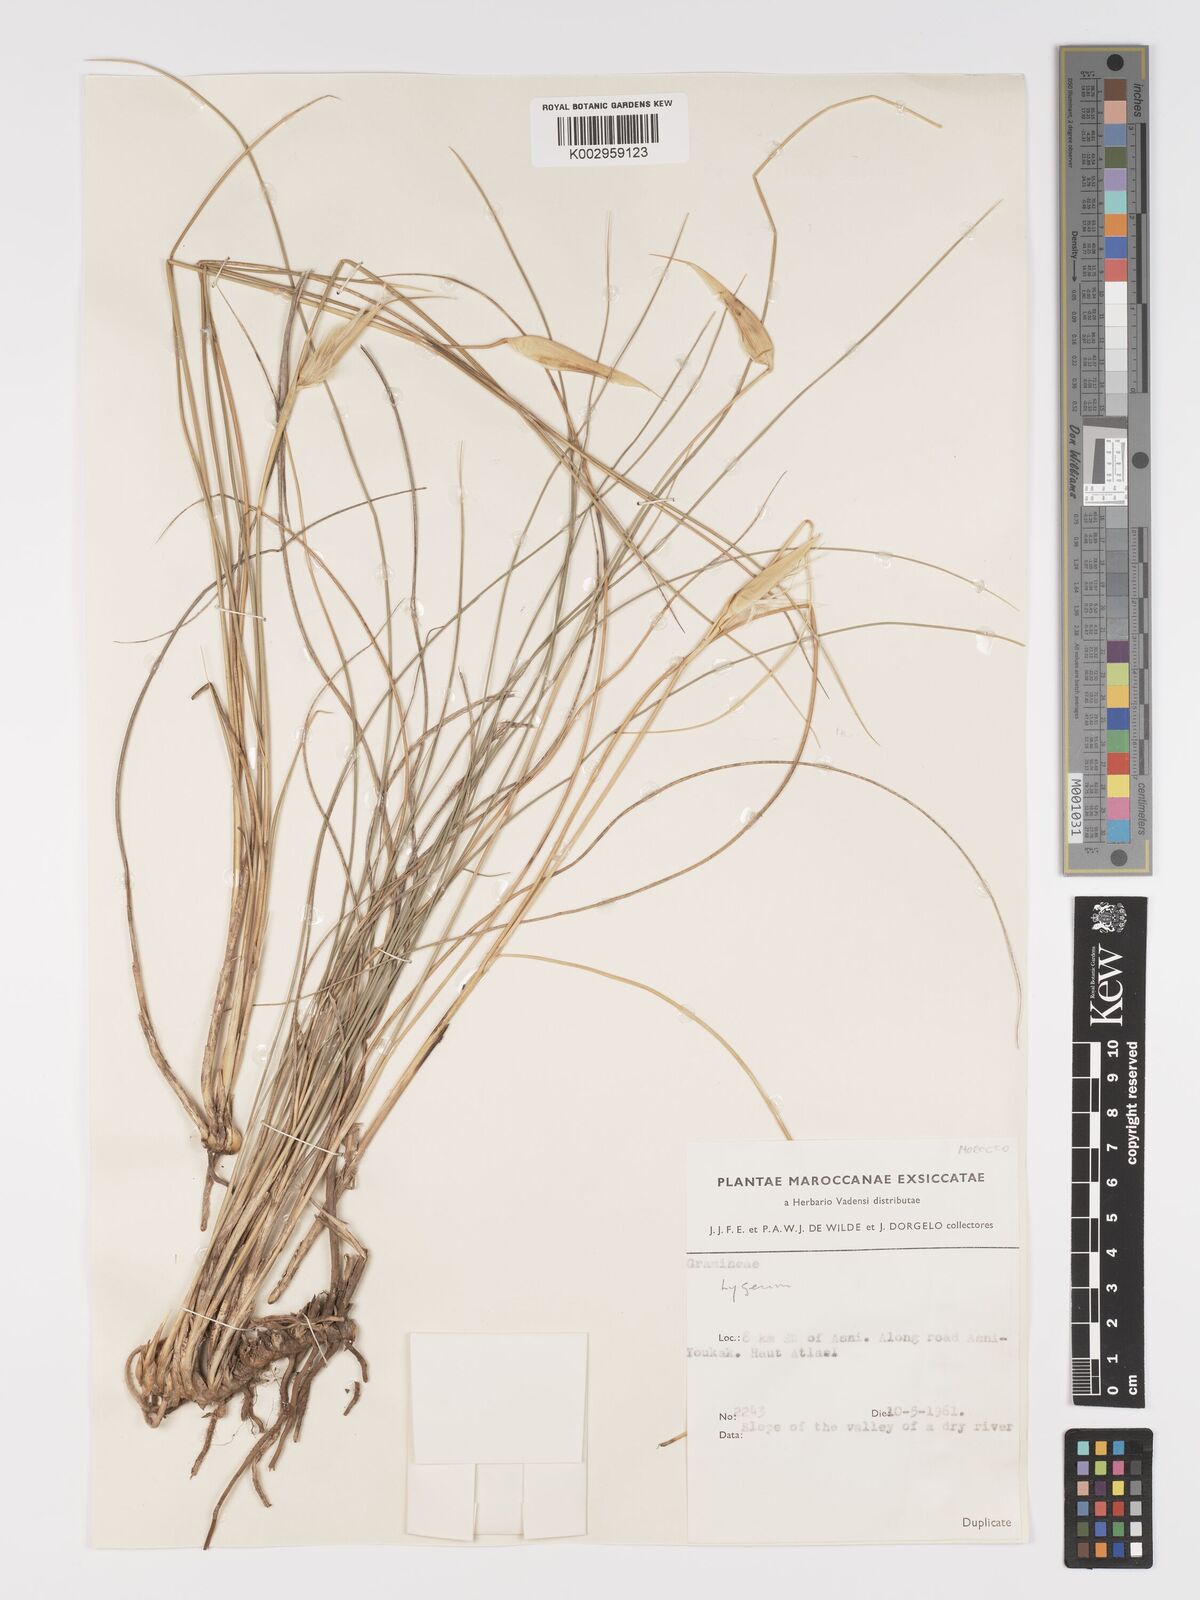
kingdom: Plantae
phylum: Tracheophyta
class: Liliopsida
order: Poales
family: Poaceae
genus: Lygeum
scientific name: Lygeum spartum
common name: Albardine
